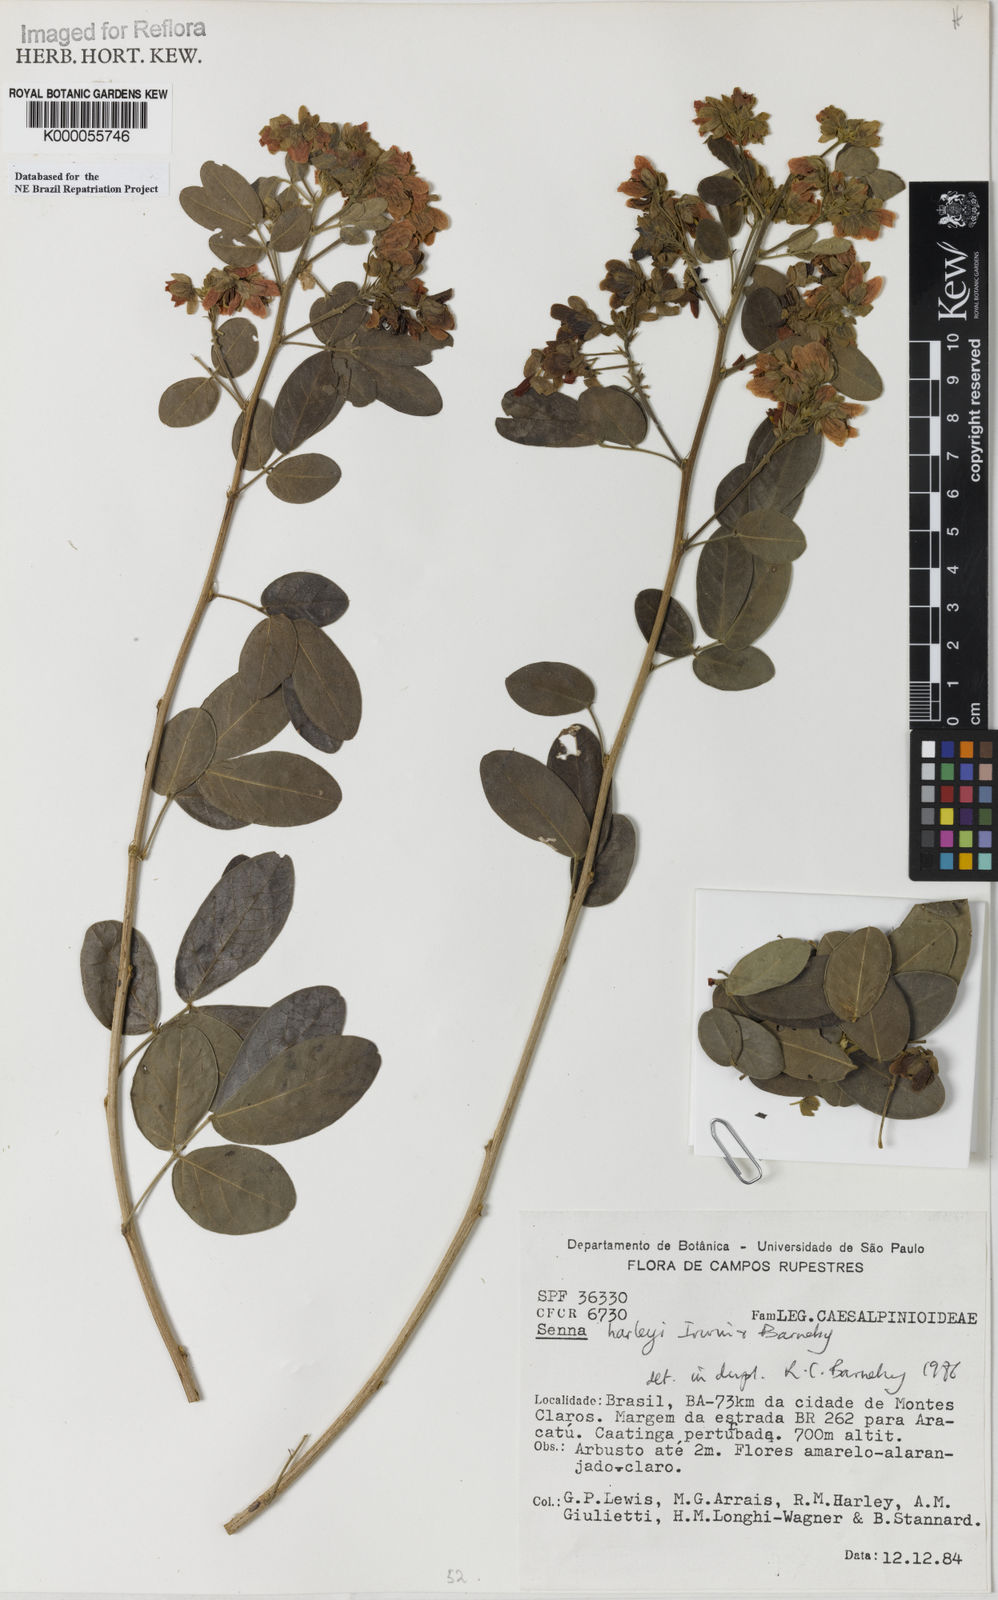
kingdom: Plantae
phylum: Tracheophyta
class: Magnoliopsida
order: Fabales
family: Fabaceae
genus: Senna
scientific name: Senna harleyi
